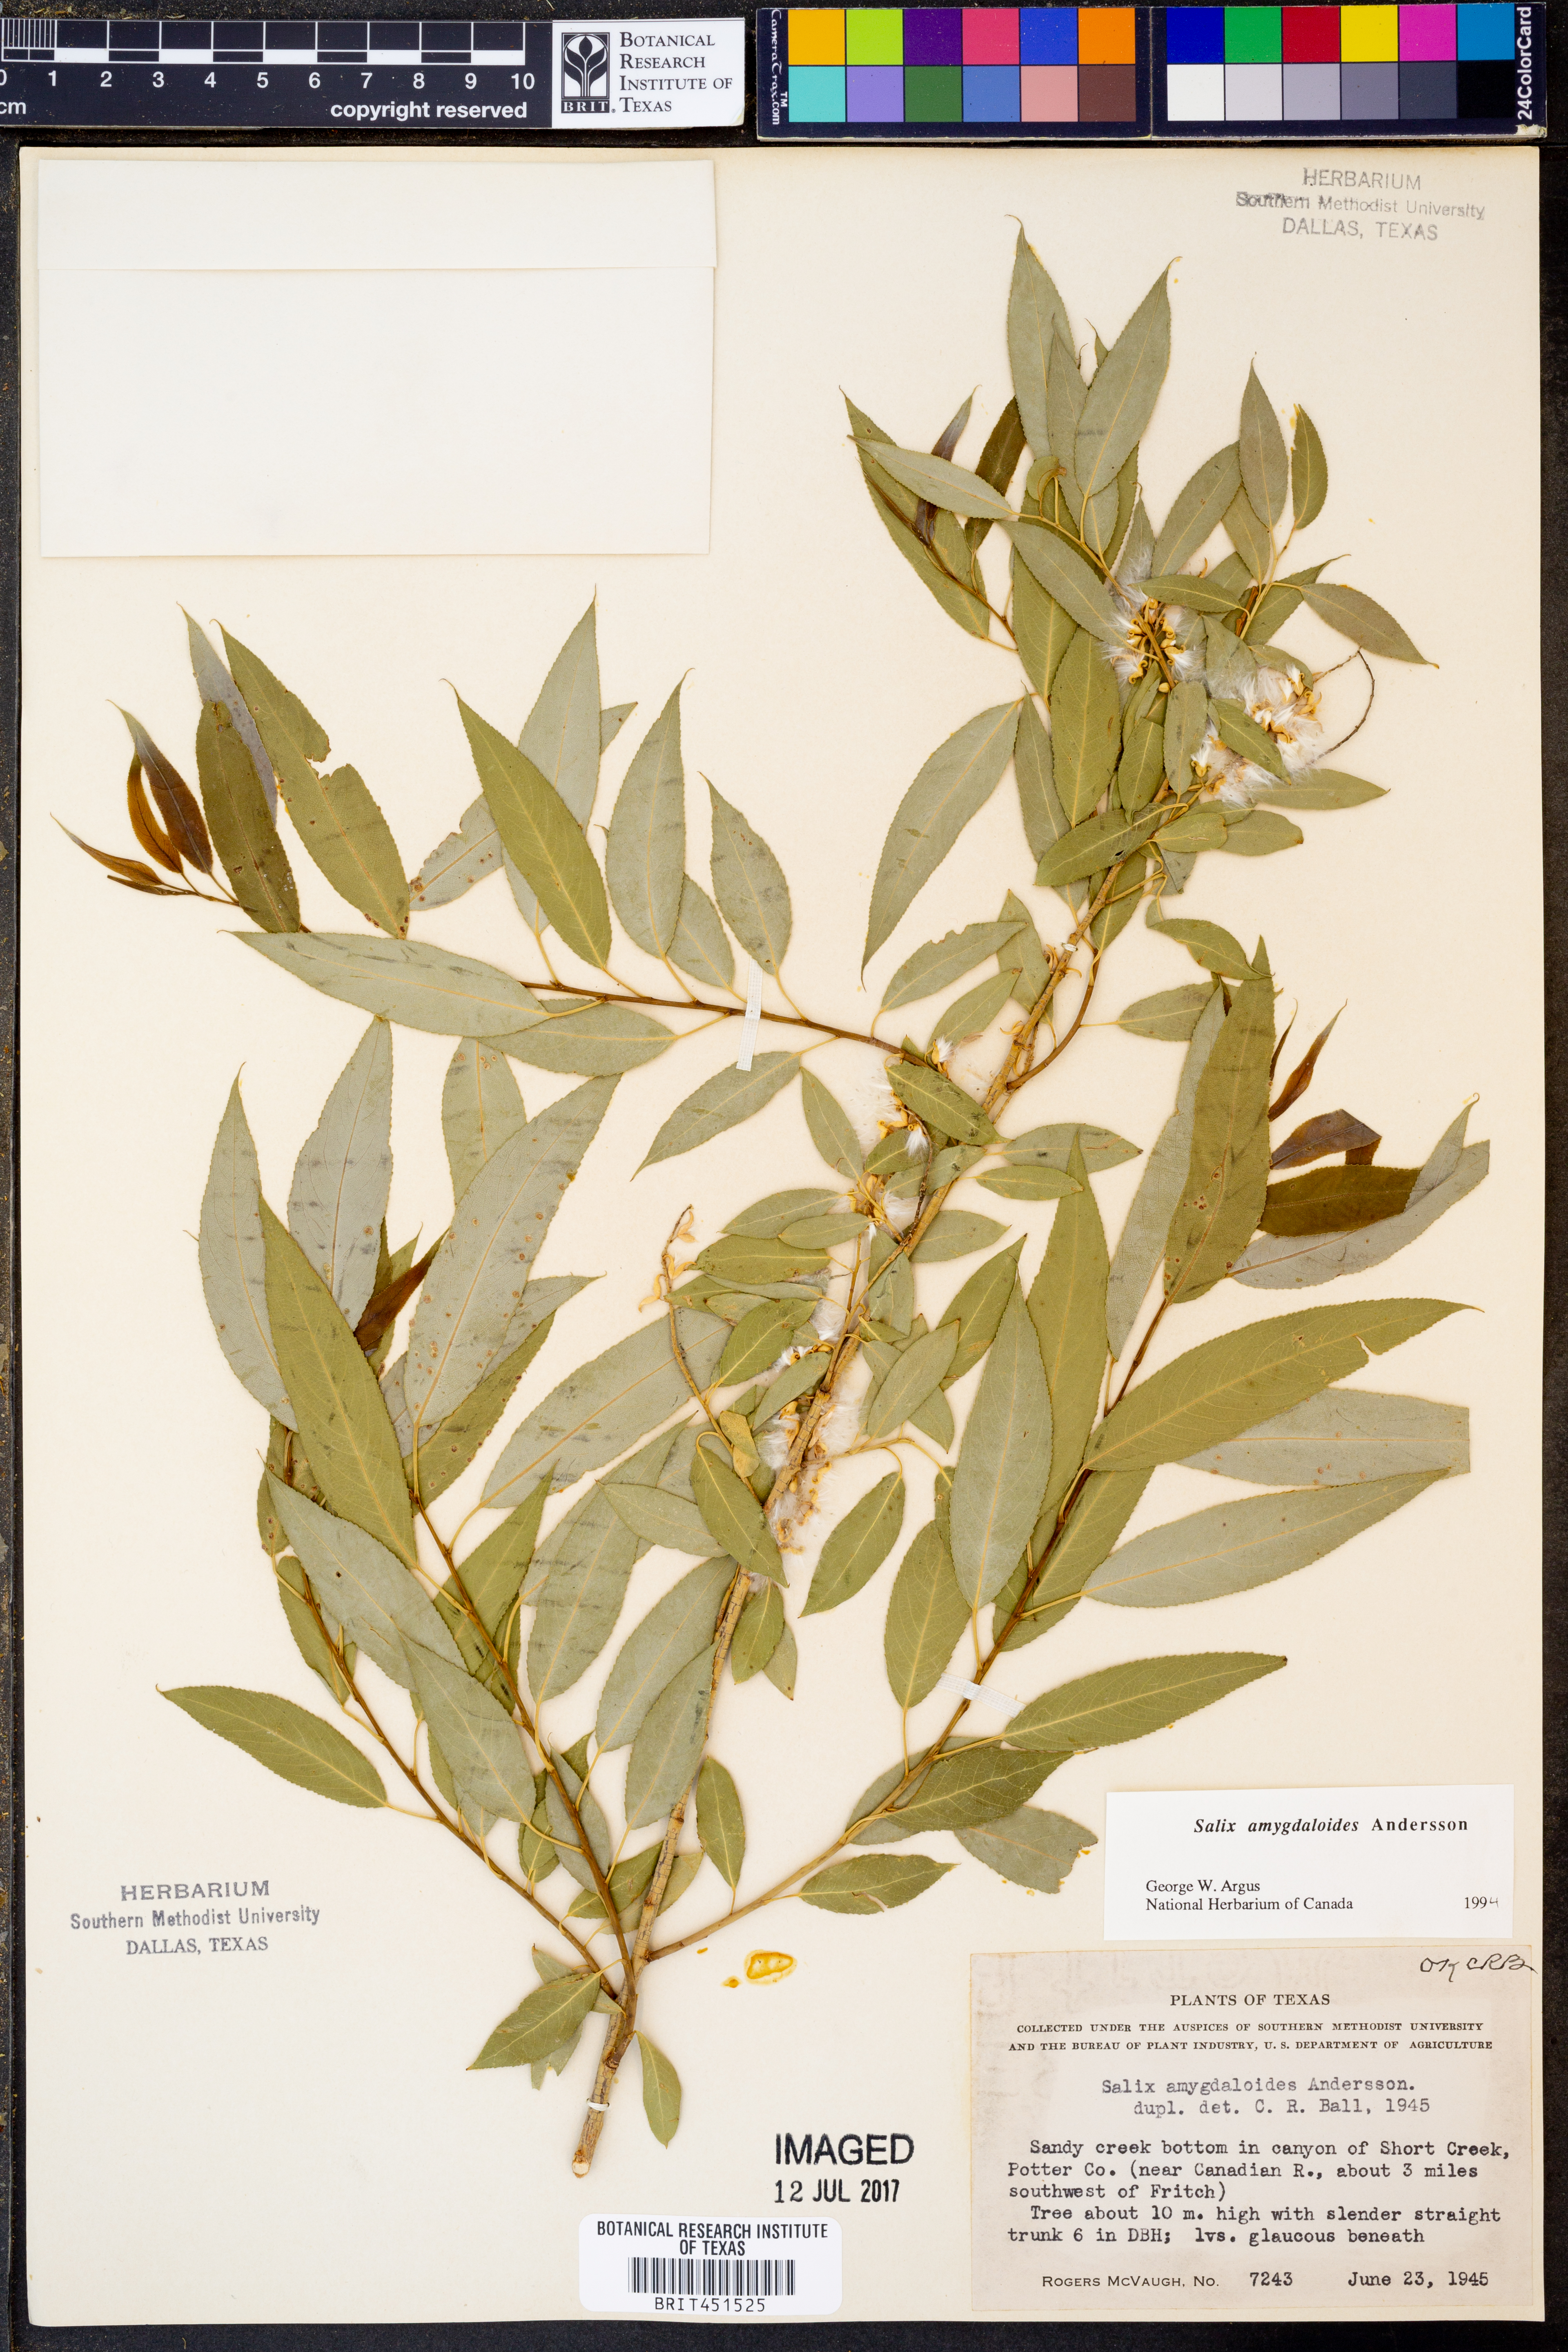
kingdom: Plantae
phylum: Tracheophyta
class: Magnoliopsida
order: Malpighiales
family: Salicaceae
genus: Salix
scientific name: Salix amygdaloides
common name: Peach leaf willow
